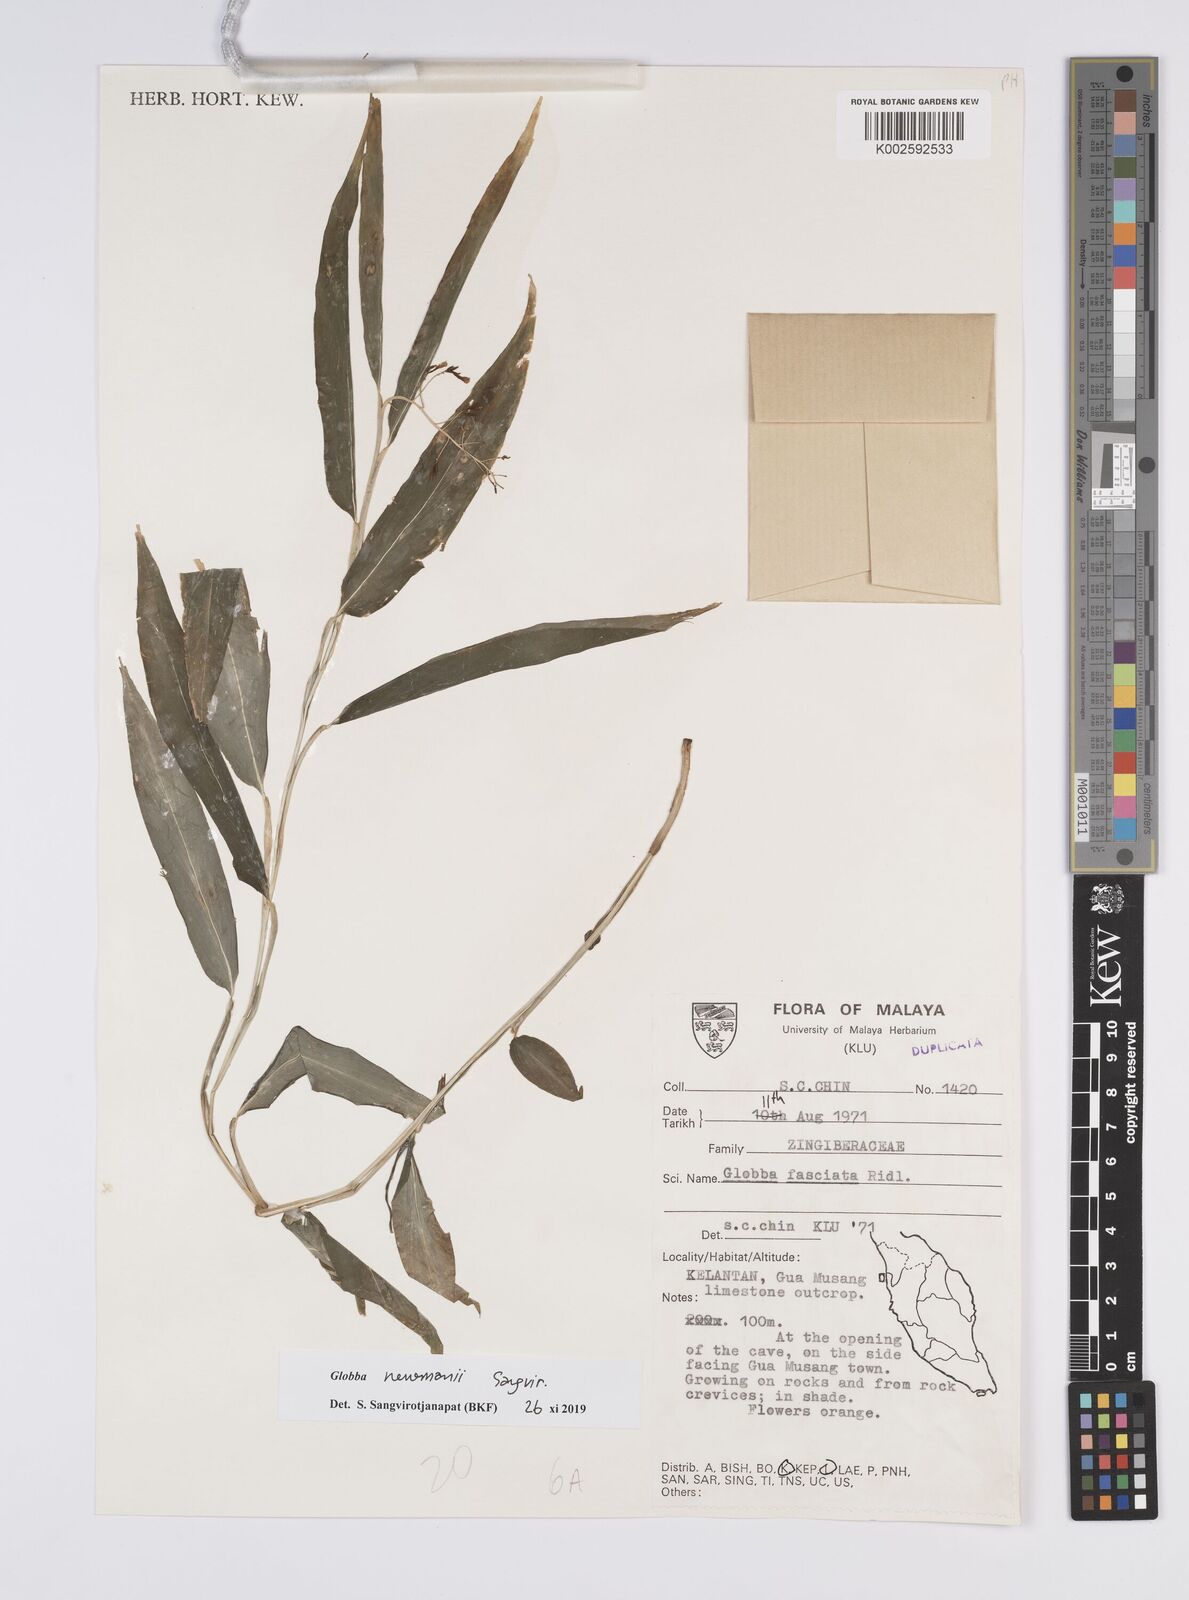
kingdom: Plantae
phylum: Tracheophyta
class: Liliopsida
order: Zingiberales
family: Zingiberaceae
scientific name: Zingiberaceae
